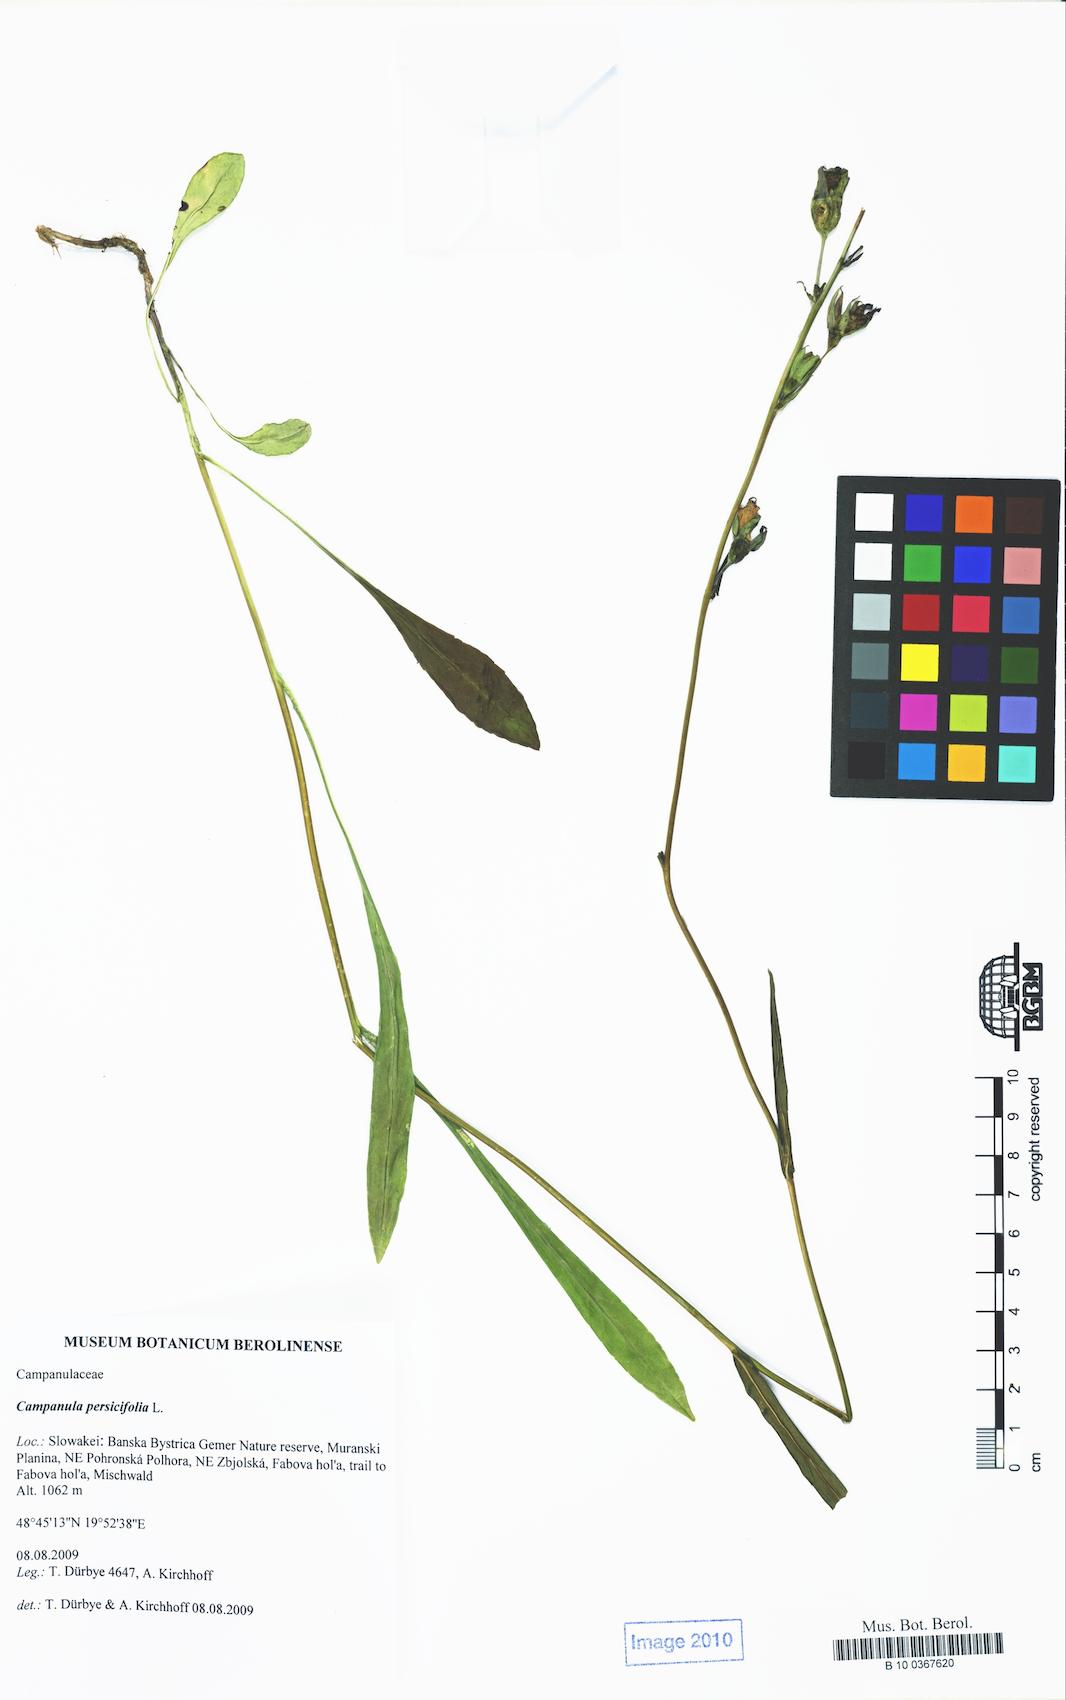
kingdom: Plantae
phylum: Tracheophyta
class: Magnoliopsida
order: Asterales
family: Campanulaceae
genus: Campanula
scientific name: Campanula persicifolia
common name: Peach-leaved bellflower
